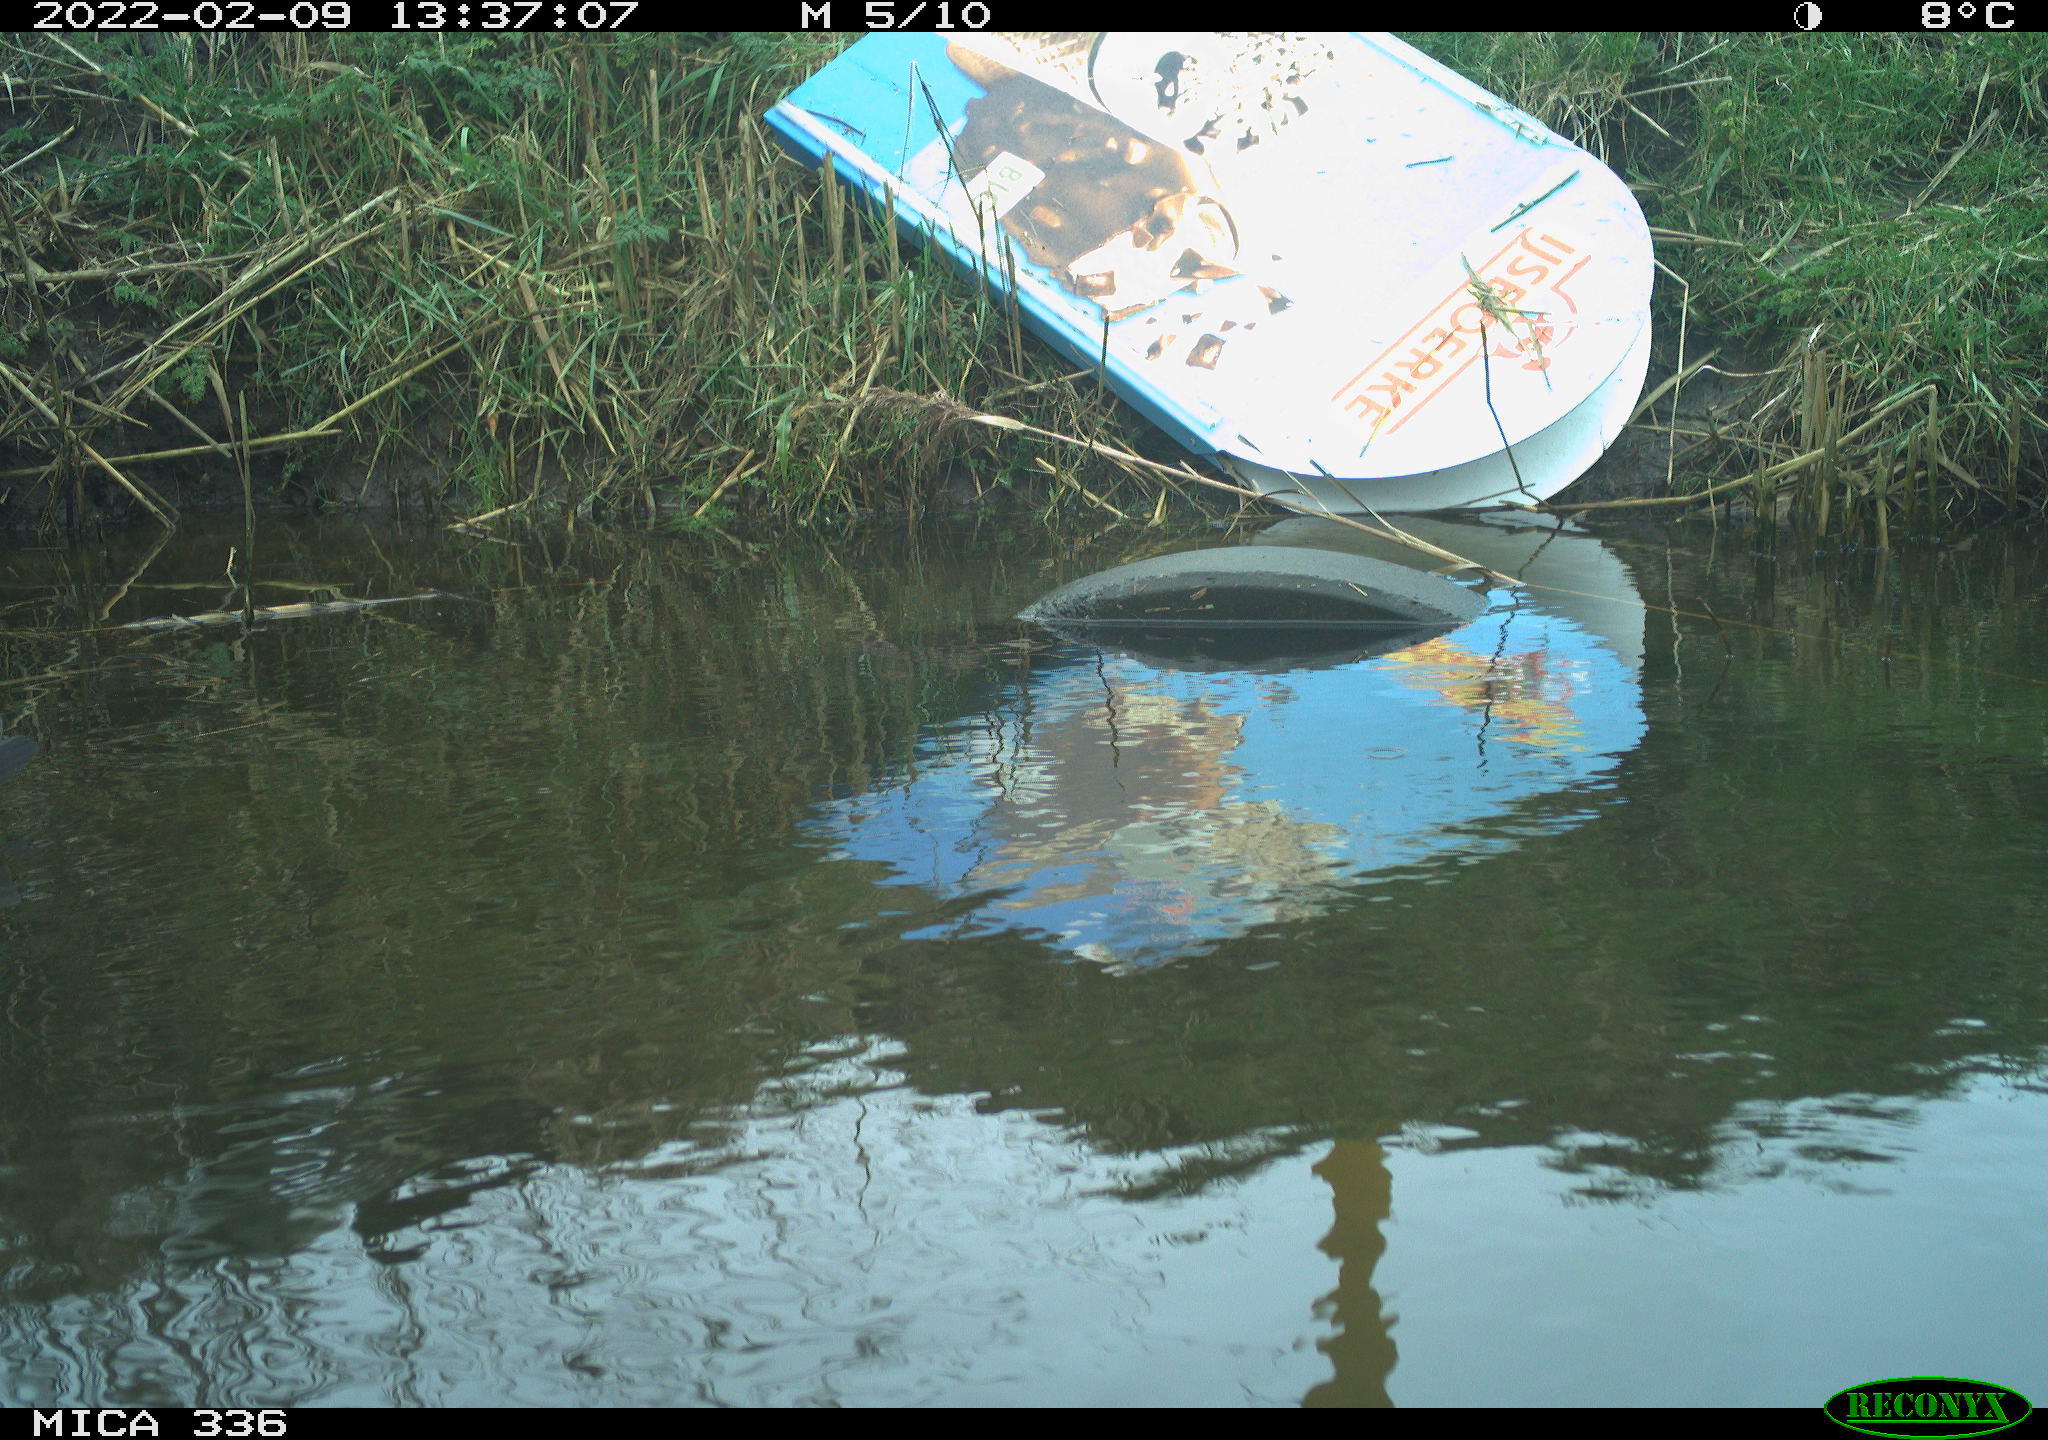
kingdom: Animalia
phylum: Chordata
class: Aves
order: Gruiformes
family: Rallidae
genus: Gallinula
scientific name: Gallinula chloropus
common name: Common moorhen
